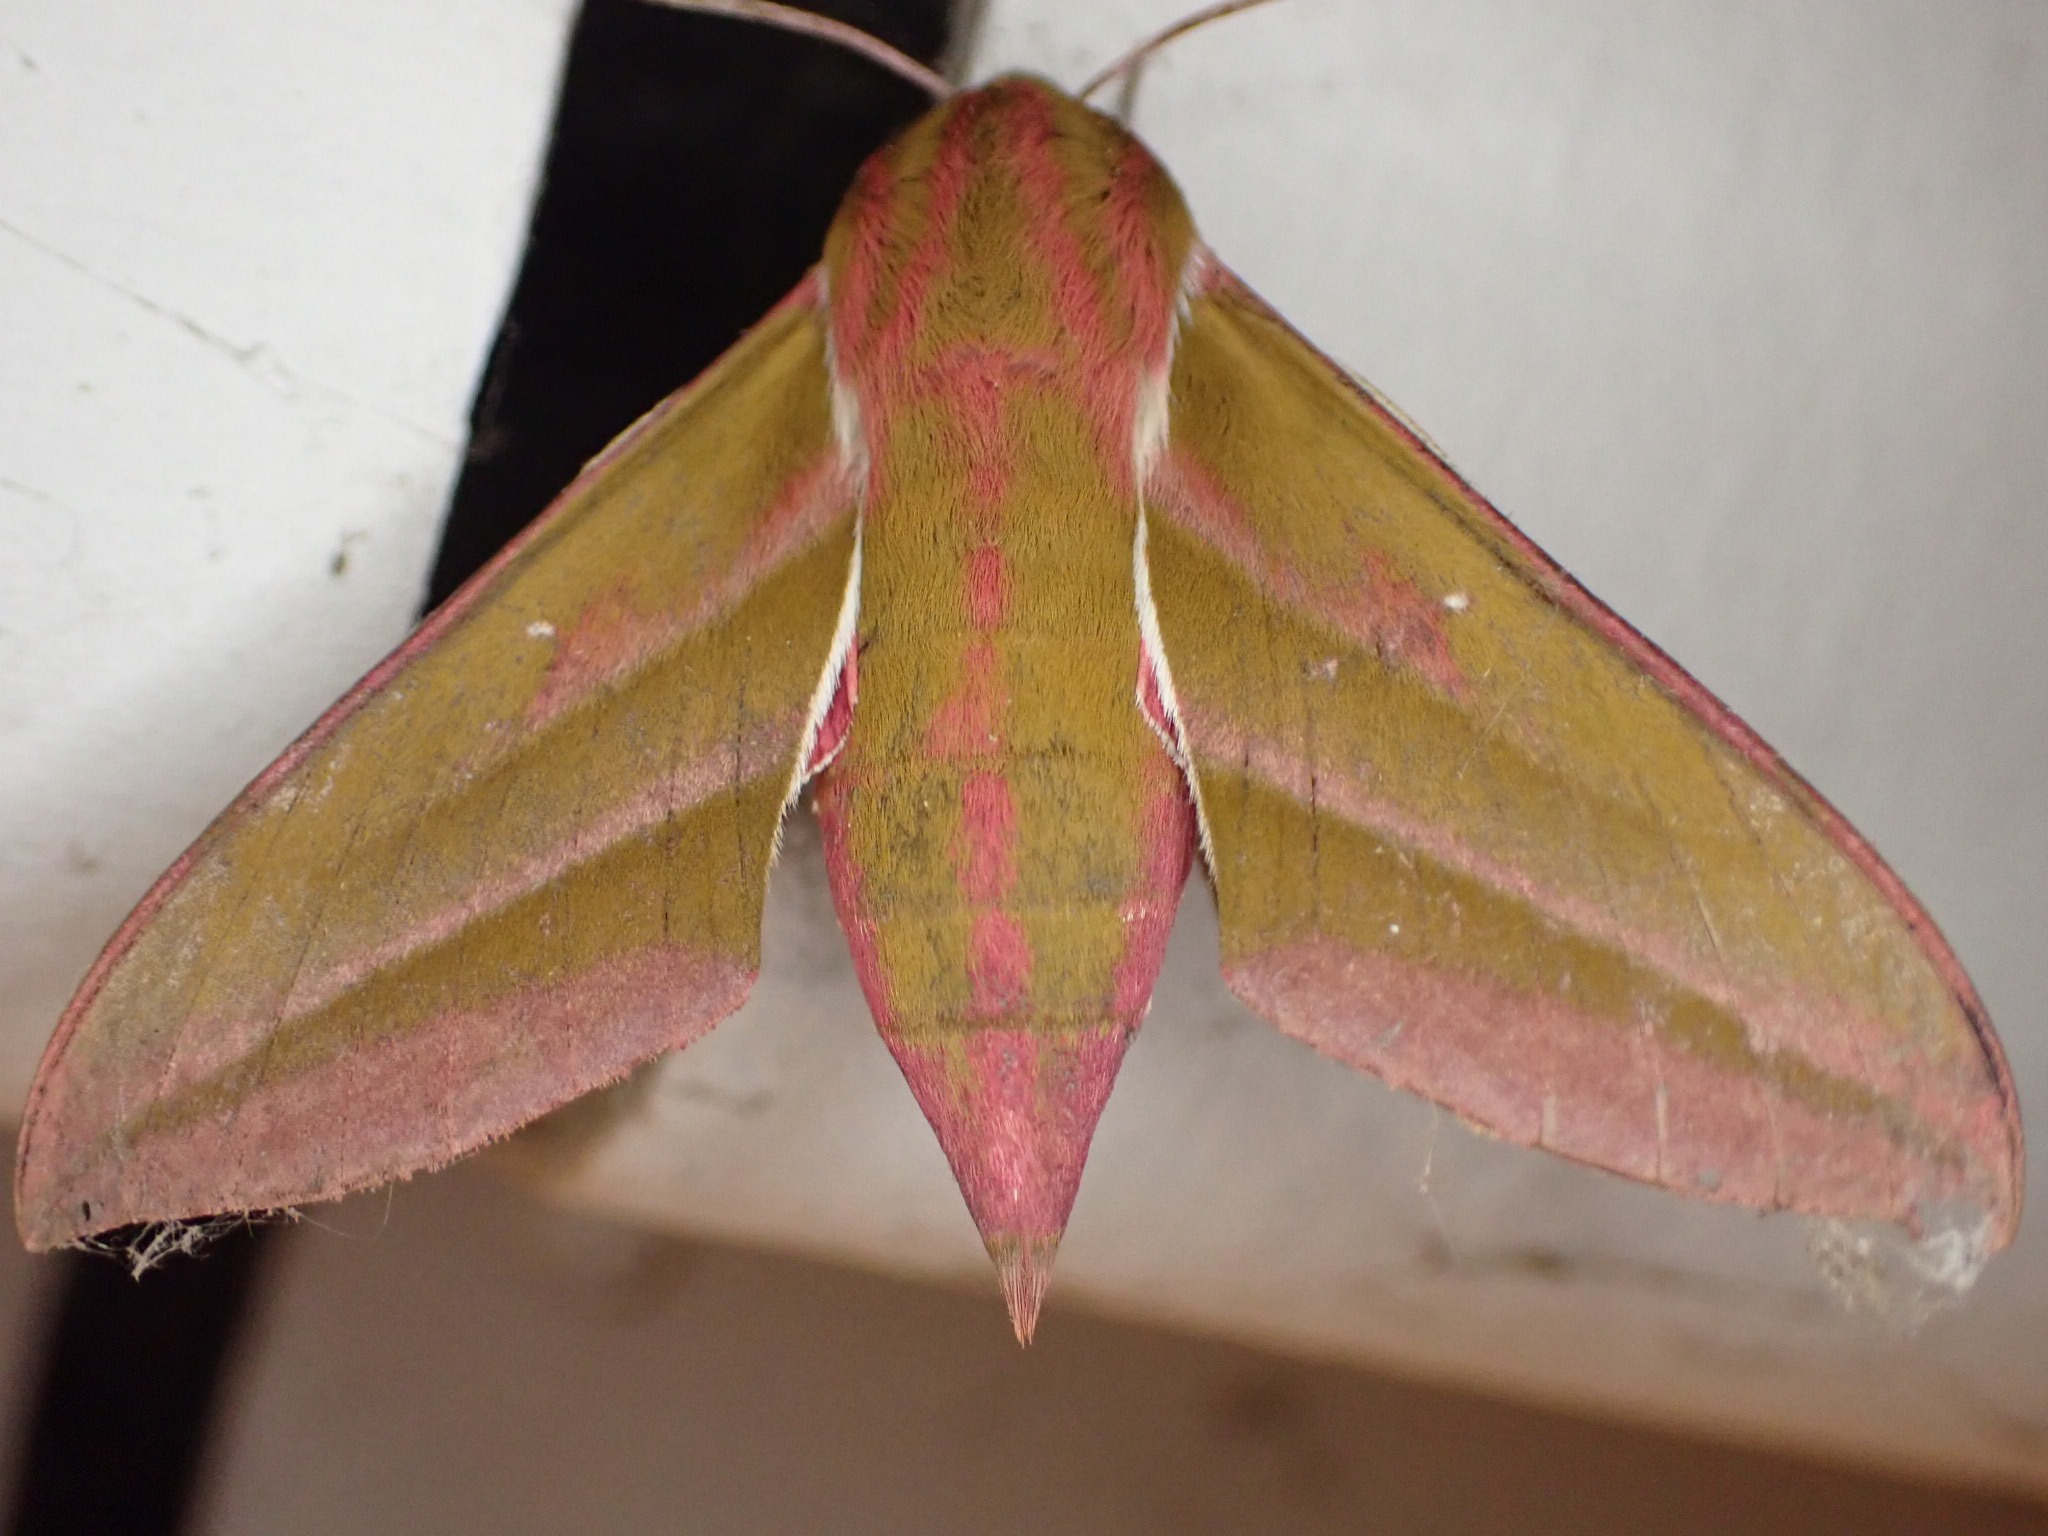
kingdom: Animalia
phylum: Arthropoda
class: Insecta
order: Lepidoptera
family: Sphingidae
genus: Deilephila
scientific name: Deilephila elpenor
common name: Dueurtsværmer
